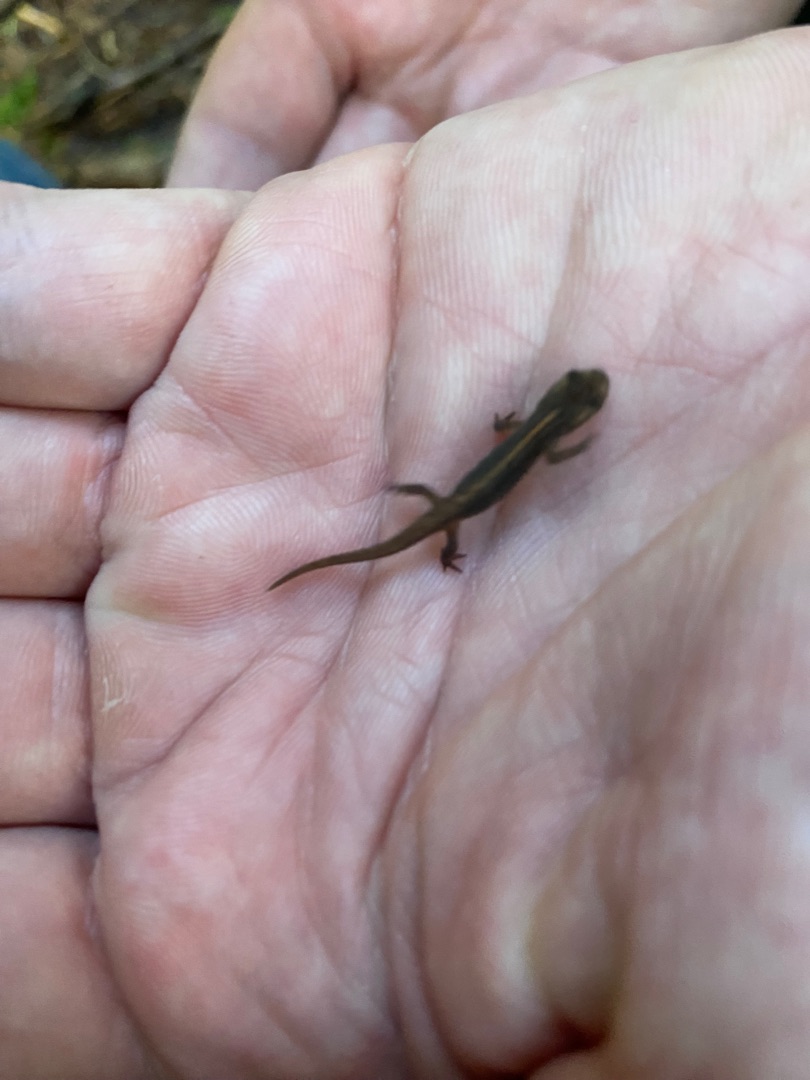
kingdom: Animalia
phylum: Chordata
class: Amphibia
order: Caudata
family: Salamandridae
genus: Lissotriton
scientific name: Lissotriton vulgaris
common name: Lille vandsalamander
